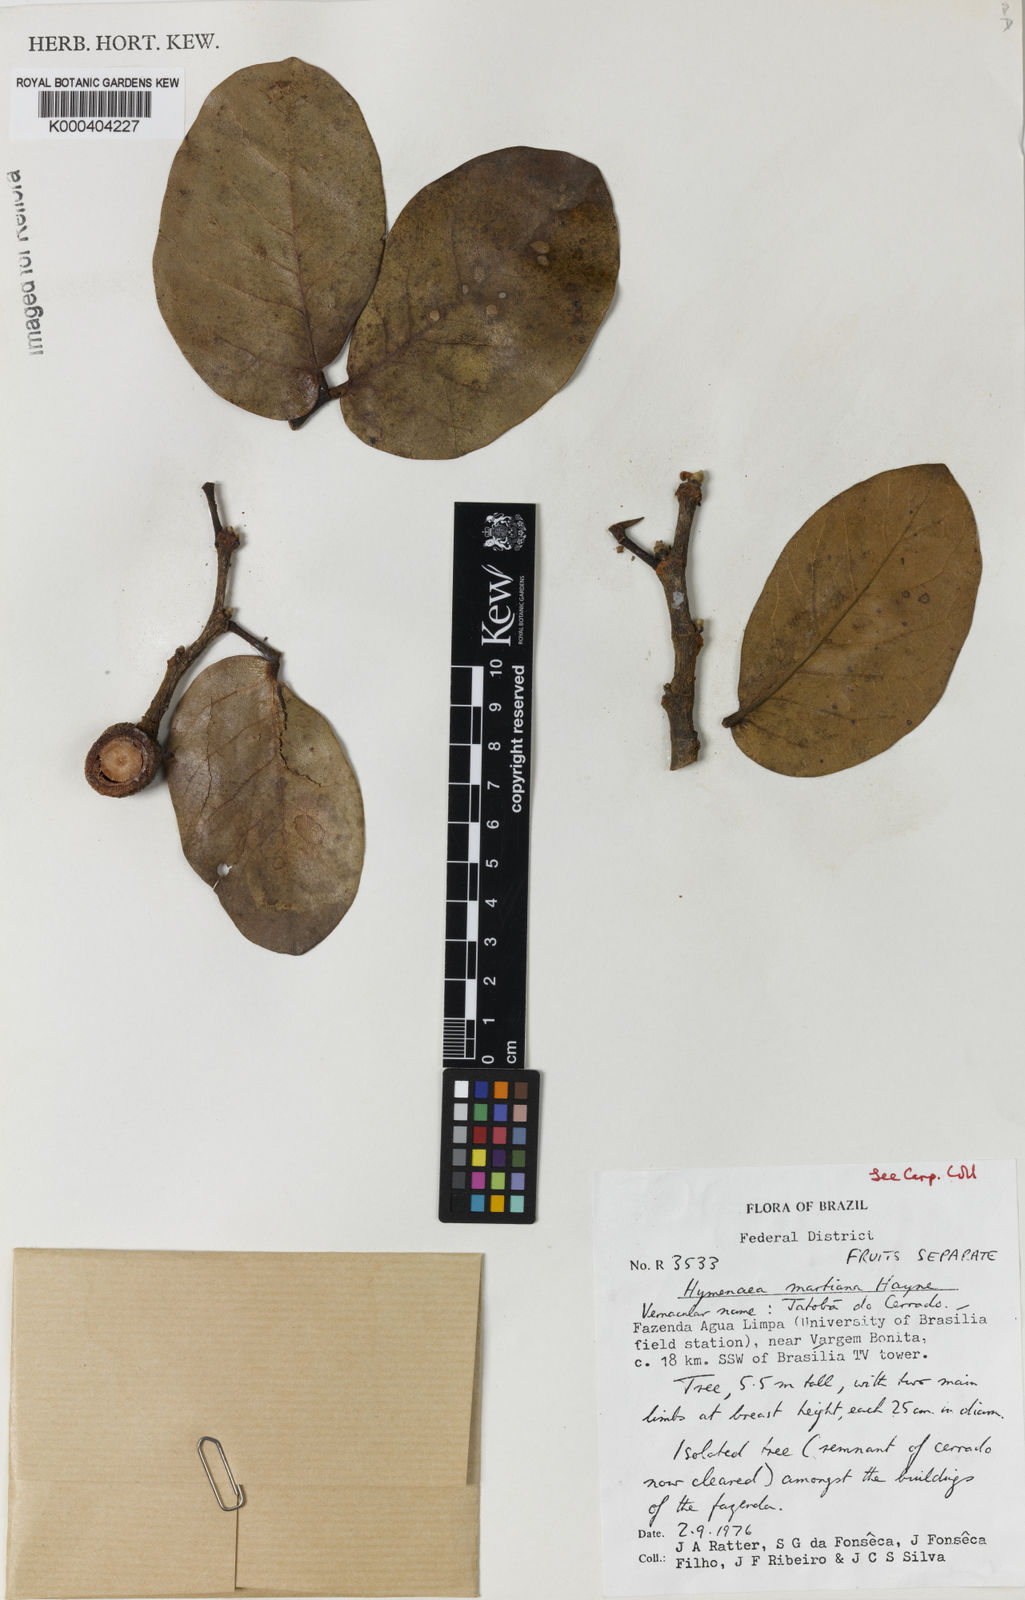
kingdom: Plantae
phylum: Tracheophyta
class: Magnoliopsida
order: Fabales
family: Fabaceae
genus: Hymenaea
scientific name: Hymenaea martiana
